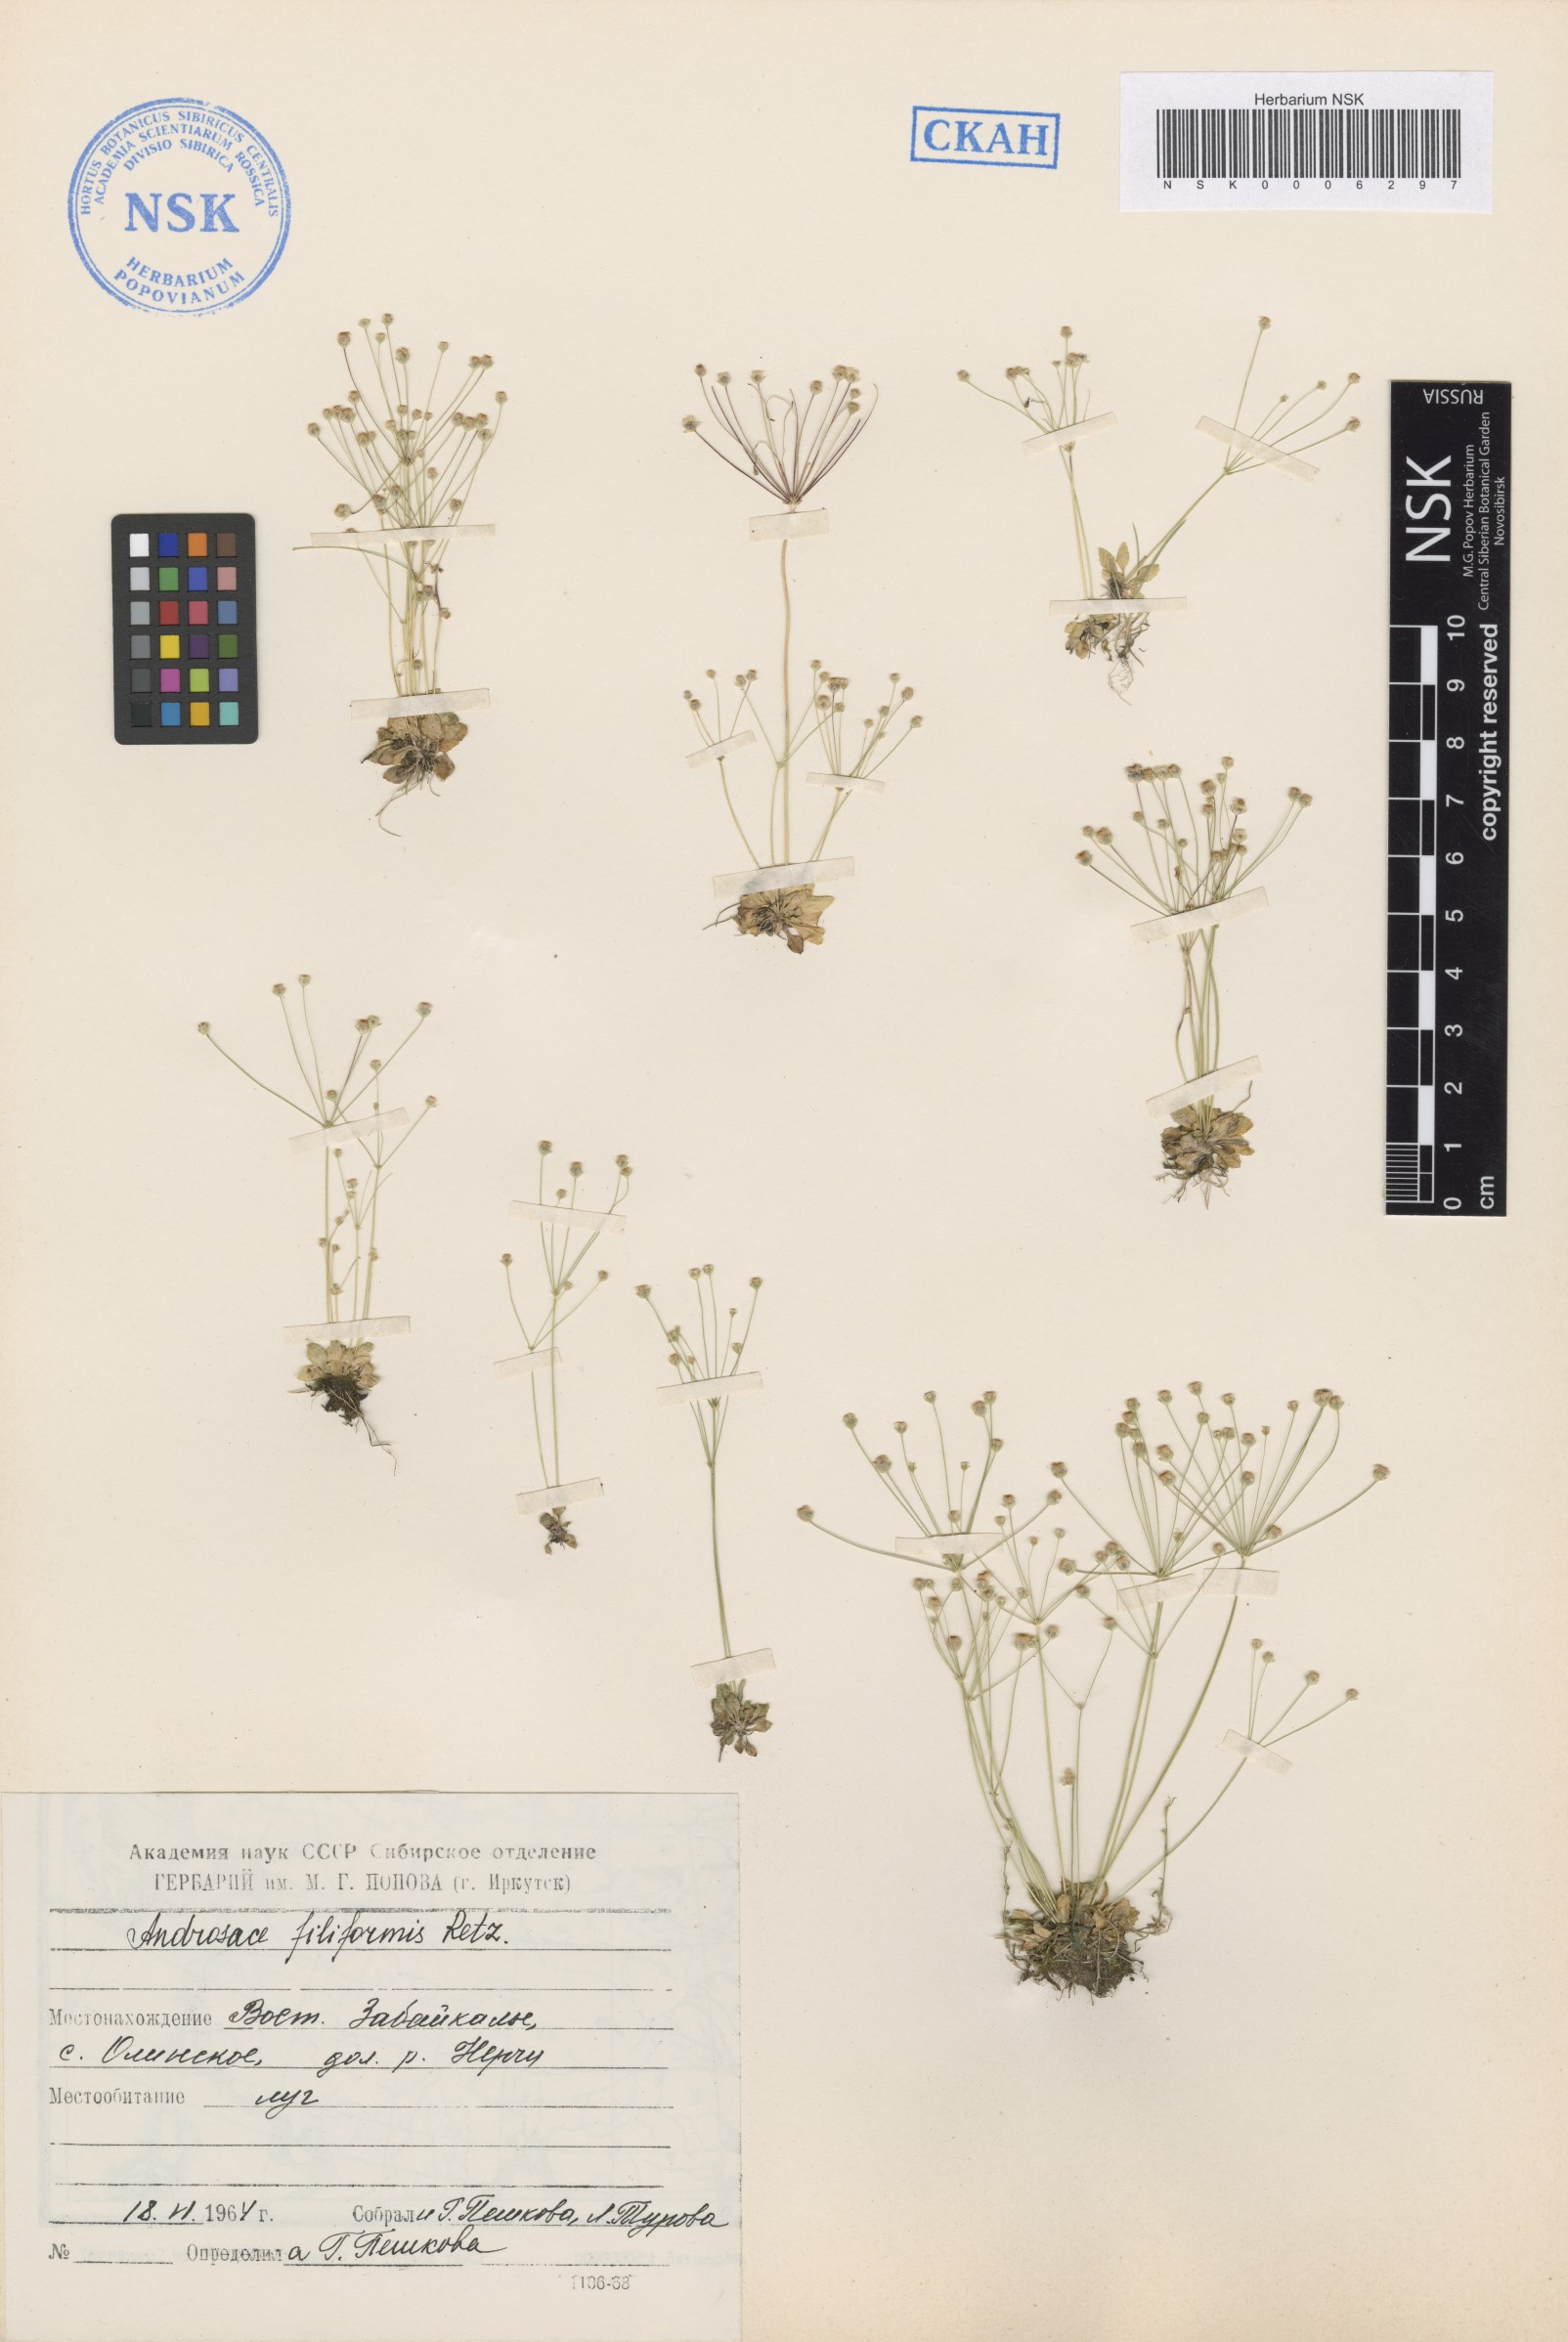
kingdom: Plantae
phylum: Tracheophyta
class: Magnoliopsida
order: Ericales
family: Primulaceae
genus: Androsace
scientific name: Androsace filiformis
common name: Filiform rock jasmine
